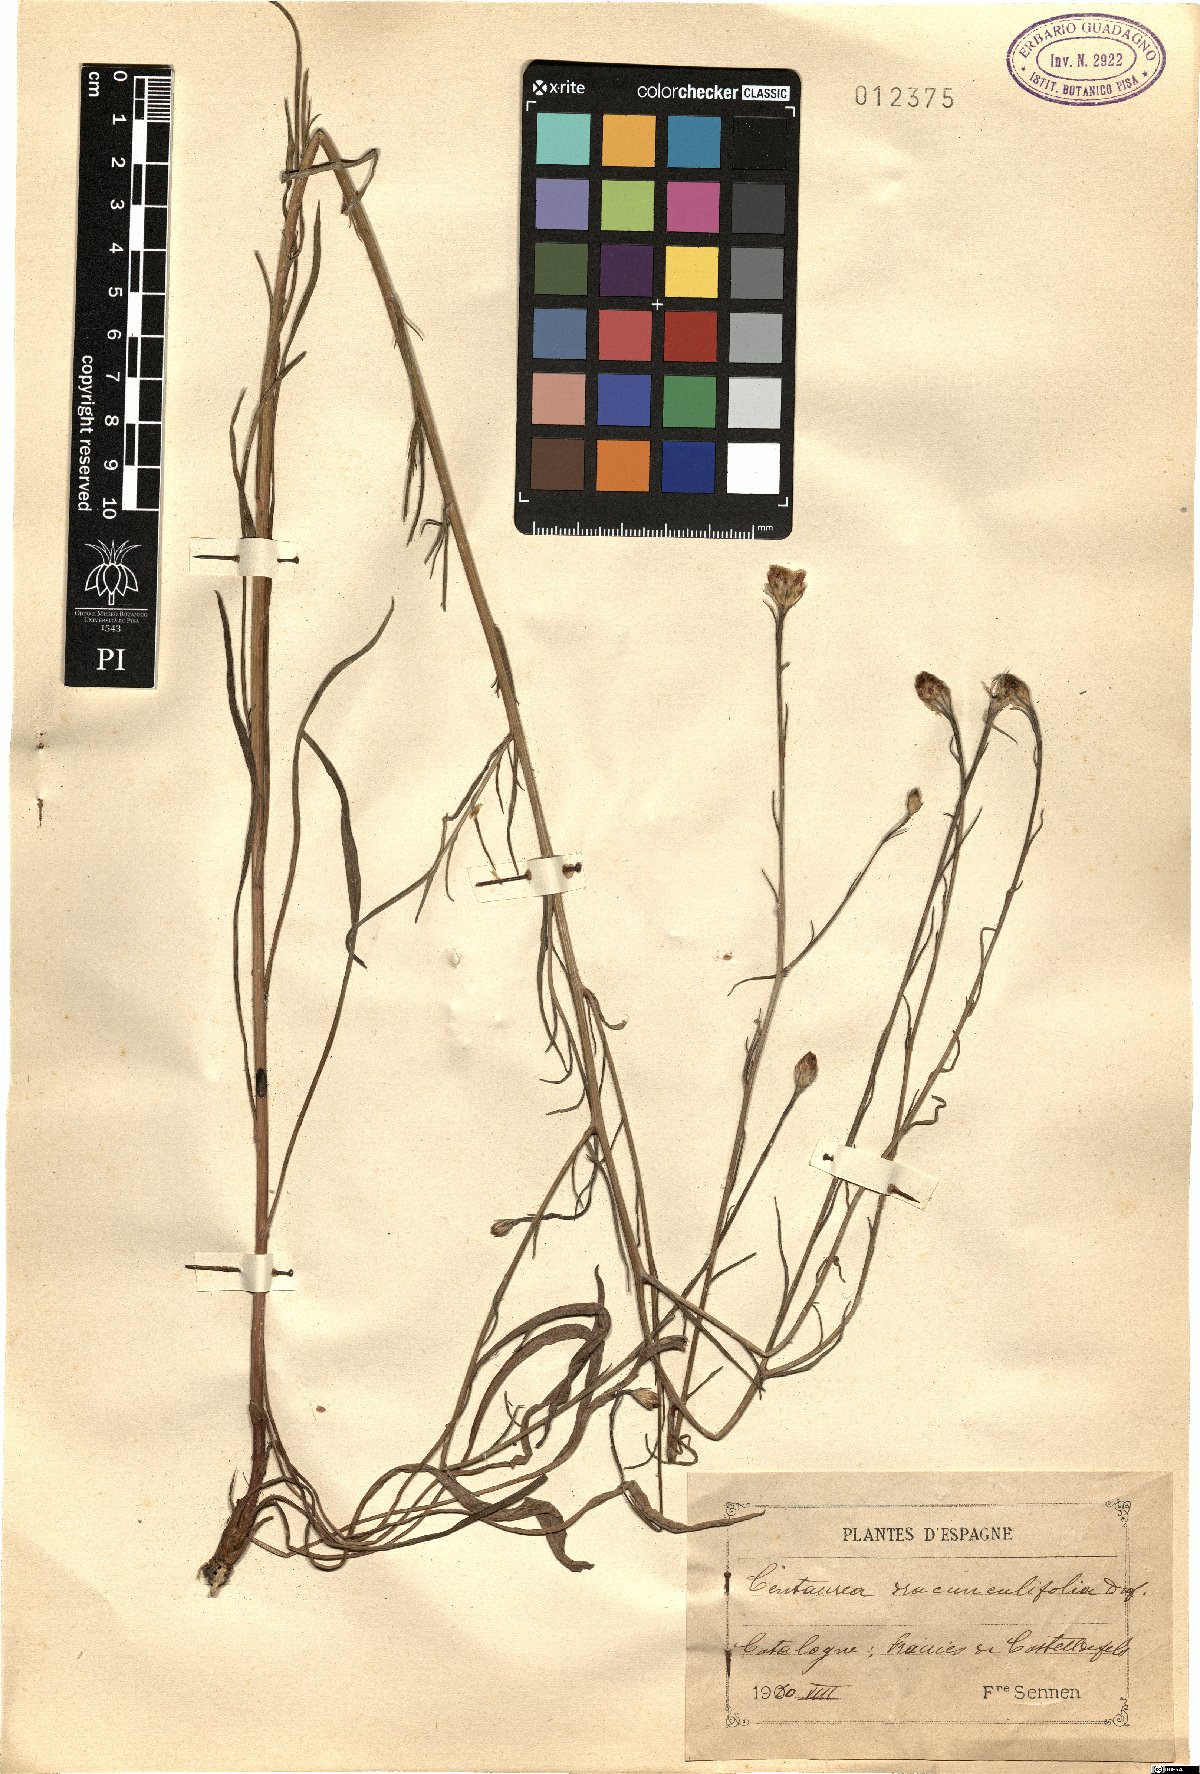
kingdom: Plantae
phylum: Tracheophyta
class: Magnoliopsida
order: Asterales
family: Asteraceae
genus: Centaurea
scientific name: Centaurea dracunculifolia
